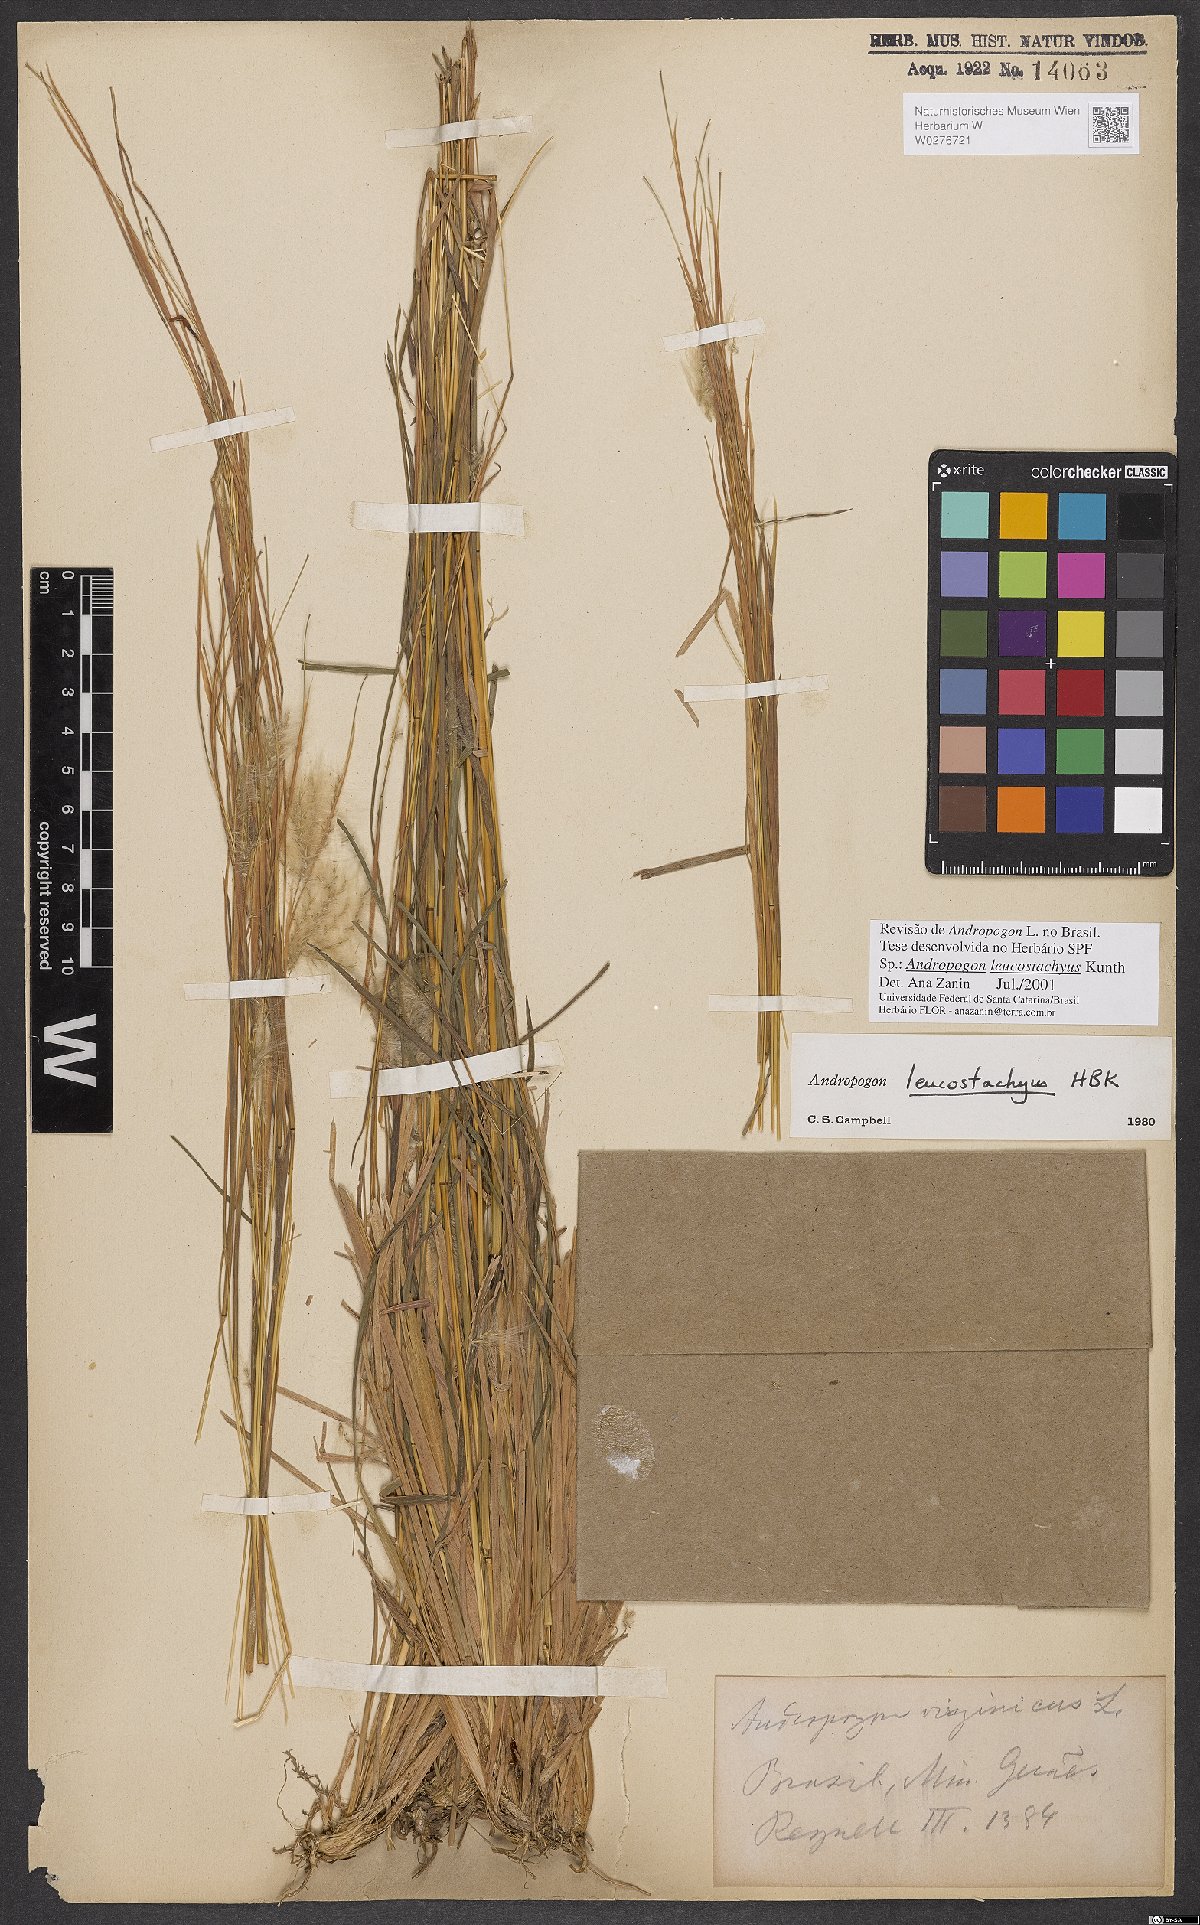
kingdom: Plantae
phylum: Tracheophyta
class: Liliopsida
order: Poales
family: Poaceae
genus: Andropogon
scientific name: Andropogon leucostachyus
